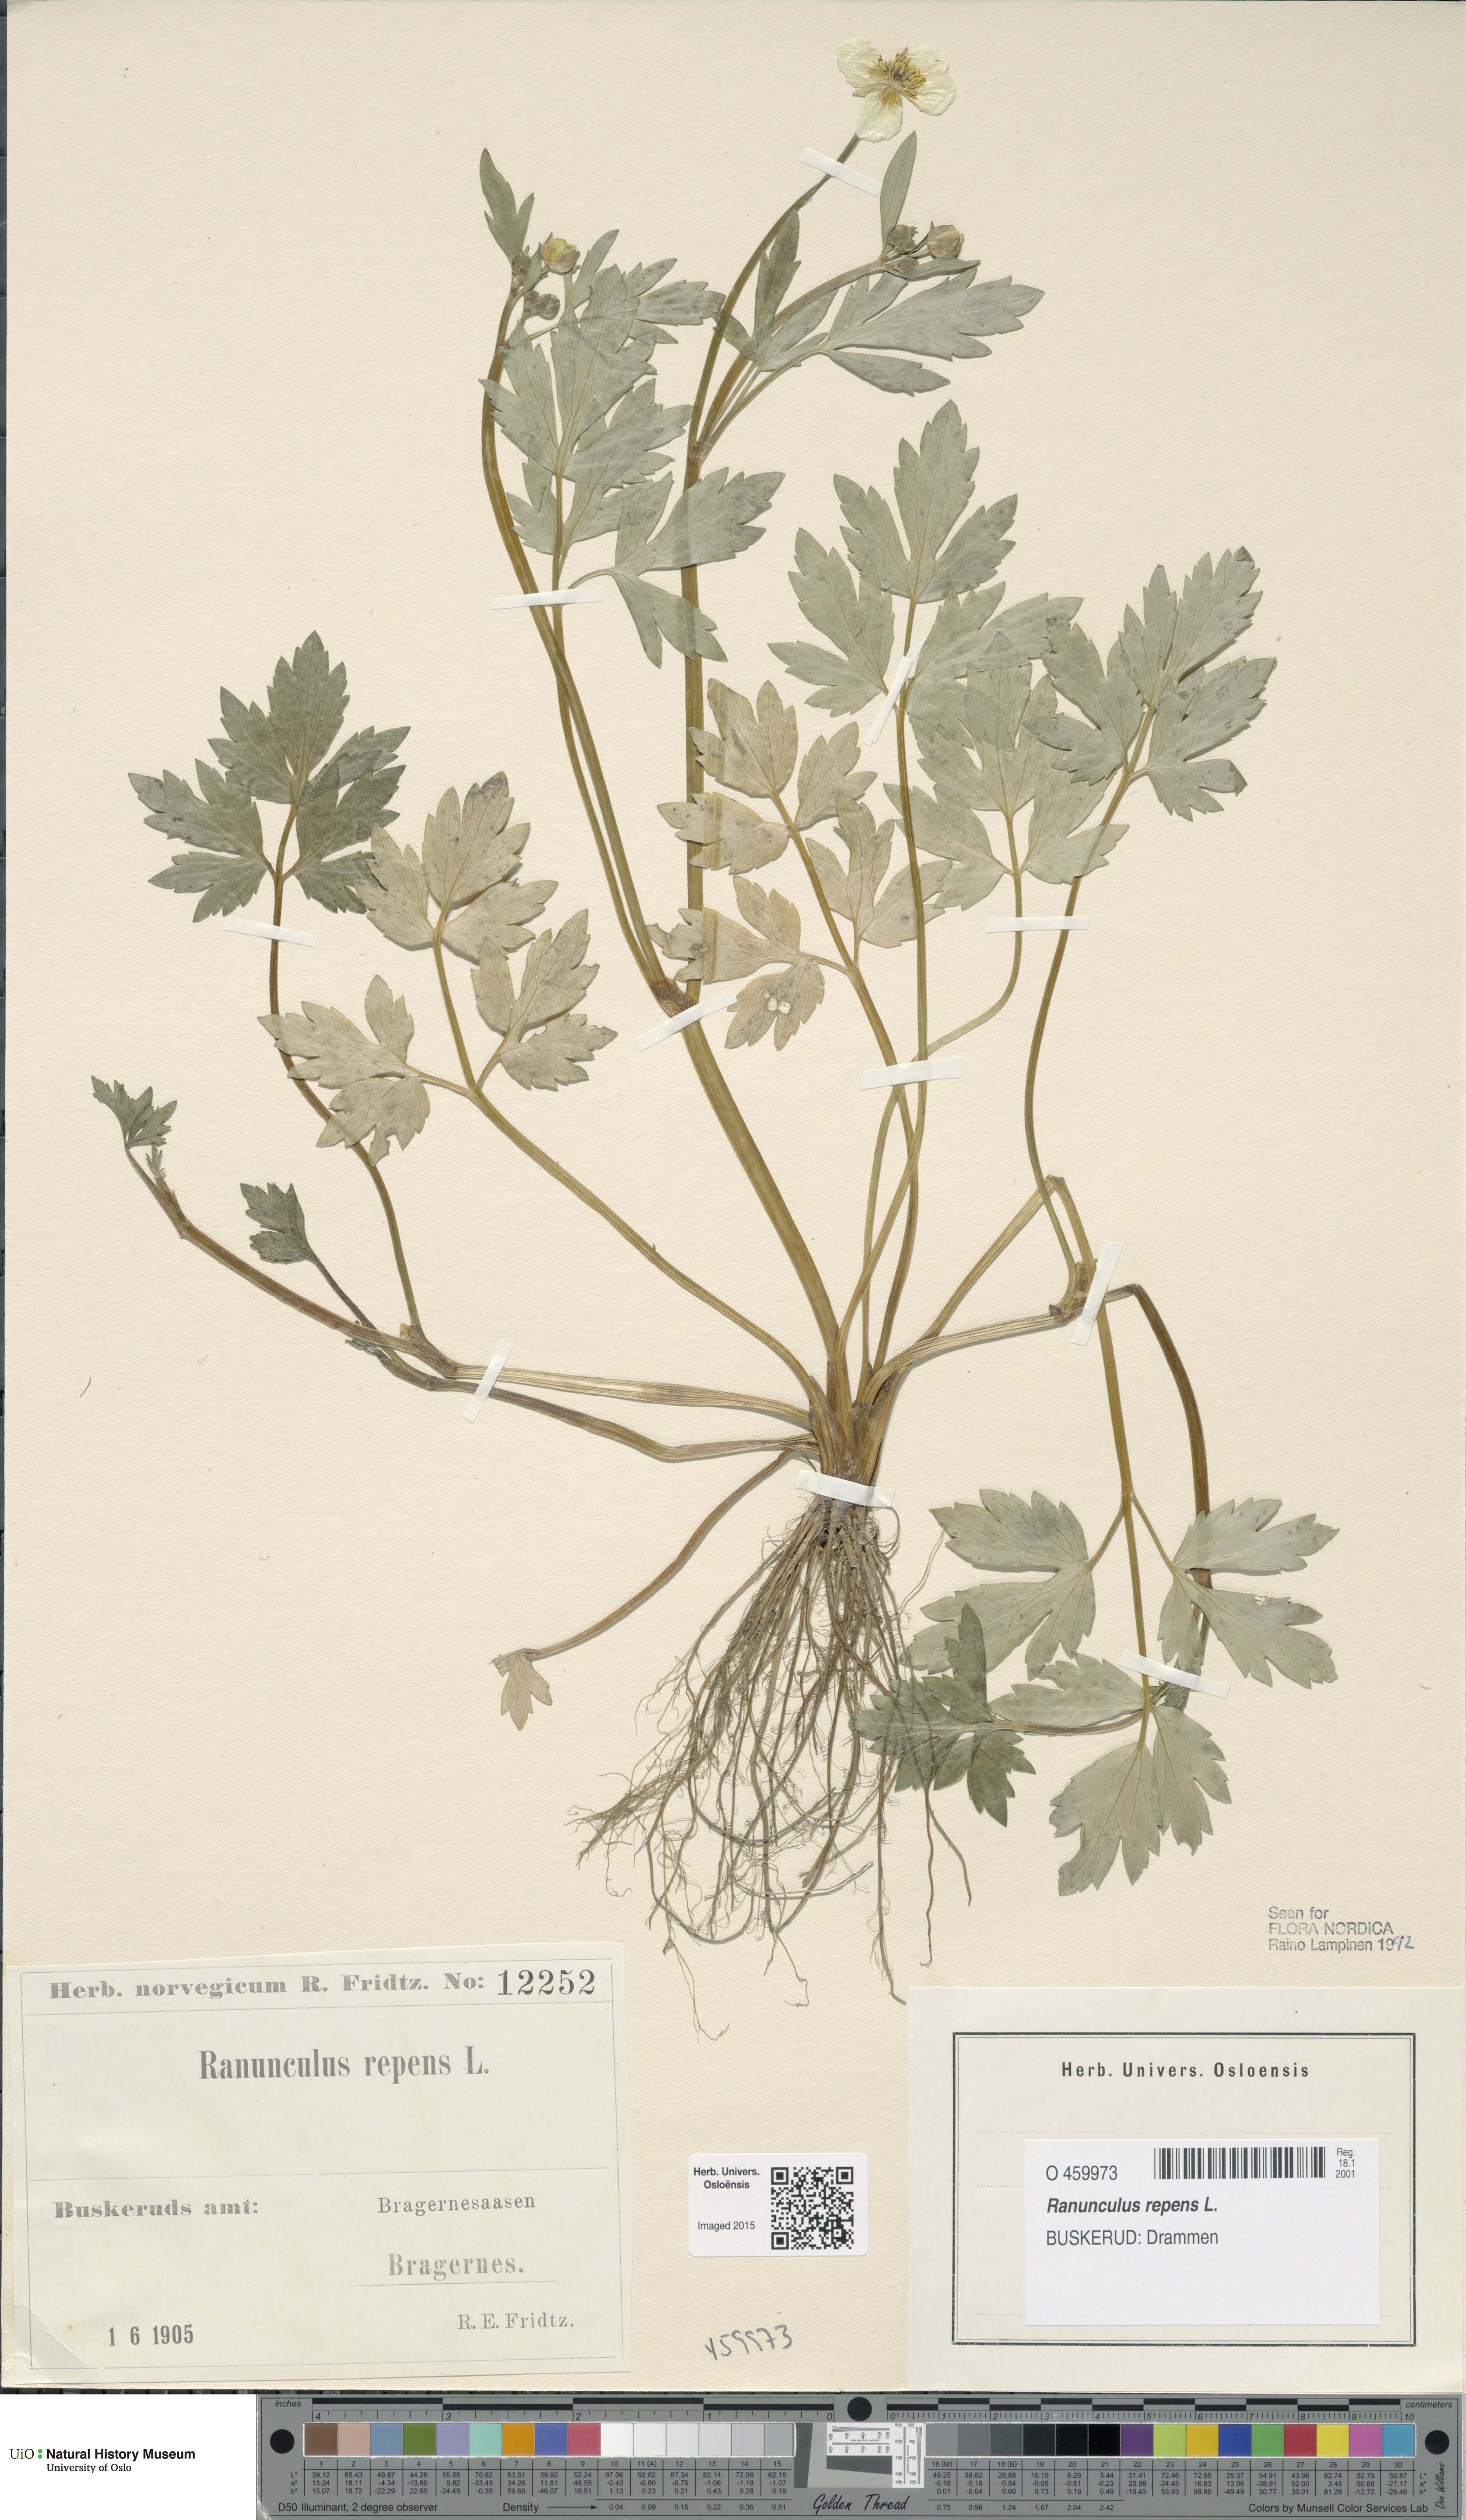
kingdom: Plantae
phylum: Tracheophyta
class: Magnoliopsida
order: Ranunculales
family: Ranunculaceae
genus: Ranunculus
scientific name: Ranunculus repens
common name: Creeping buttercup
